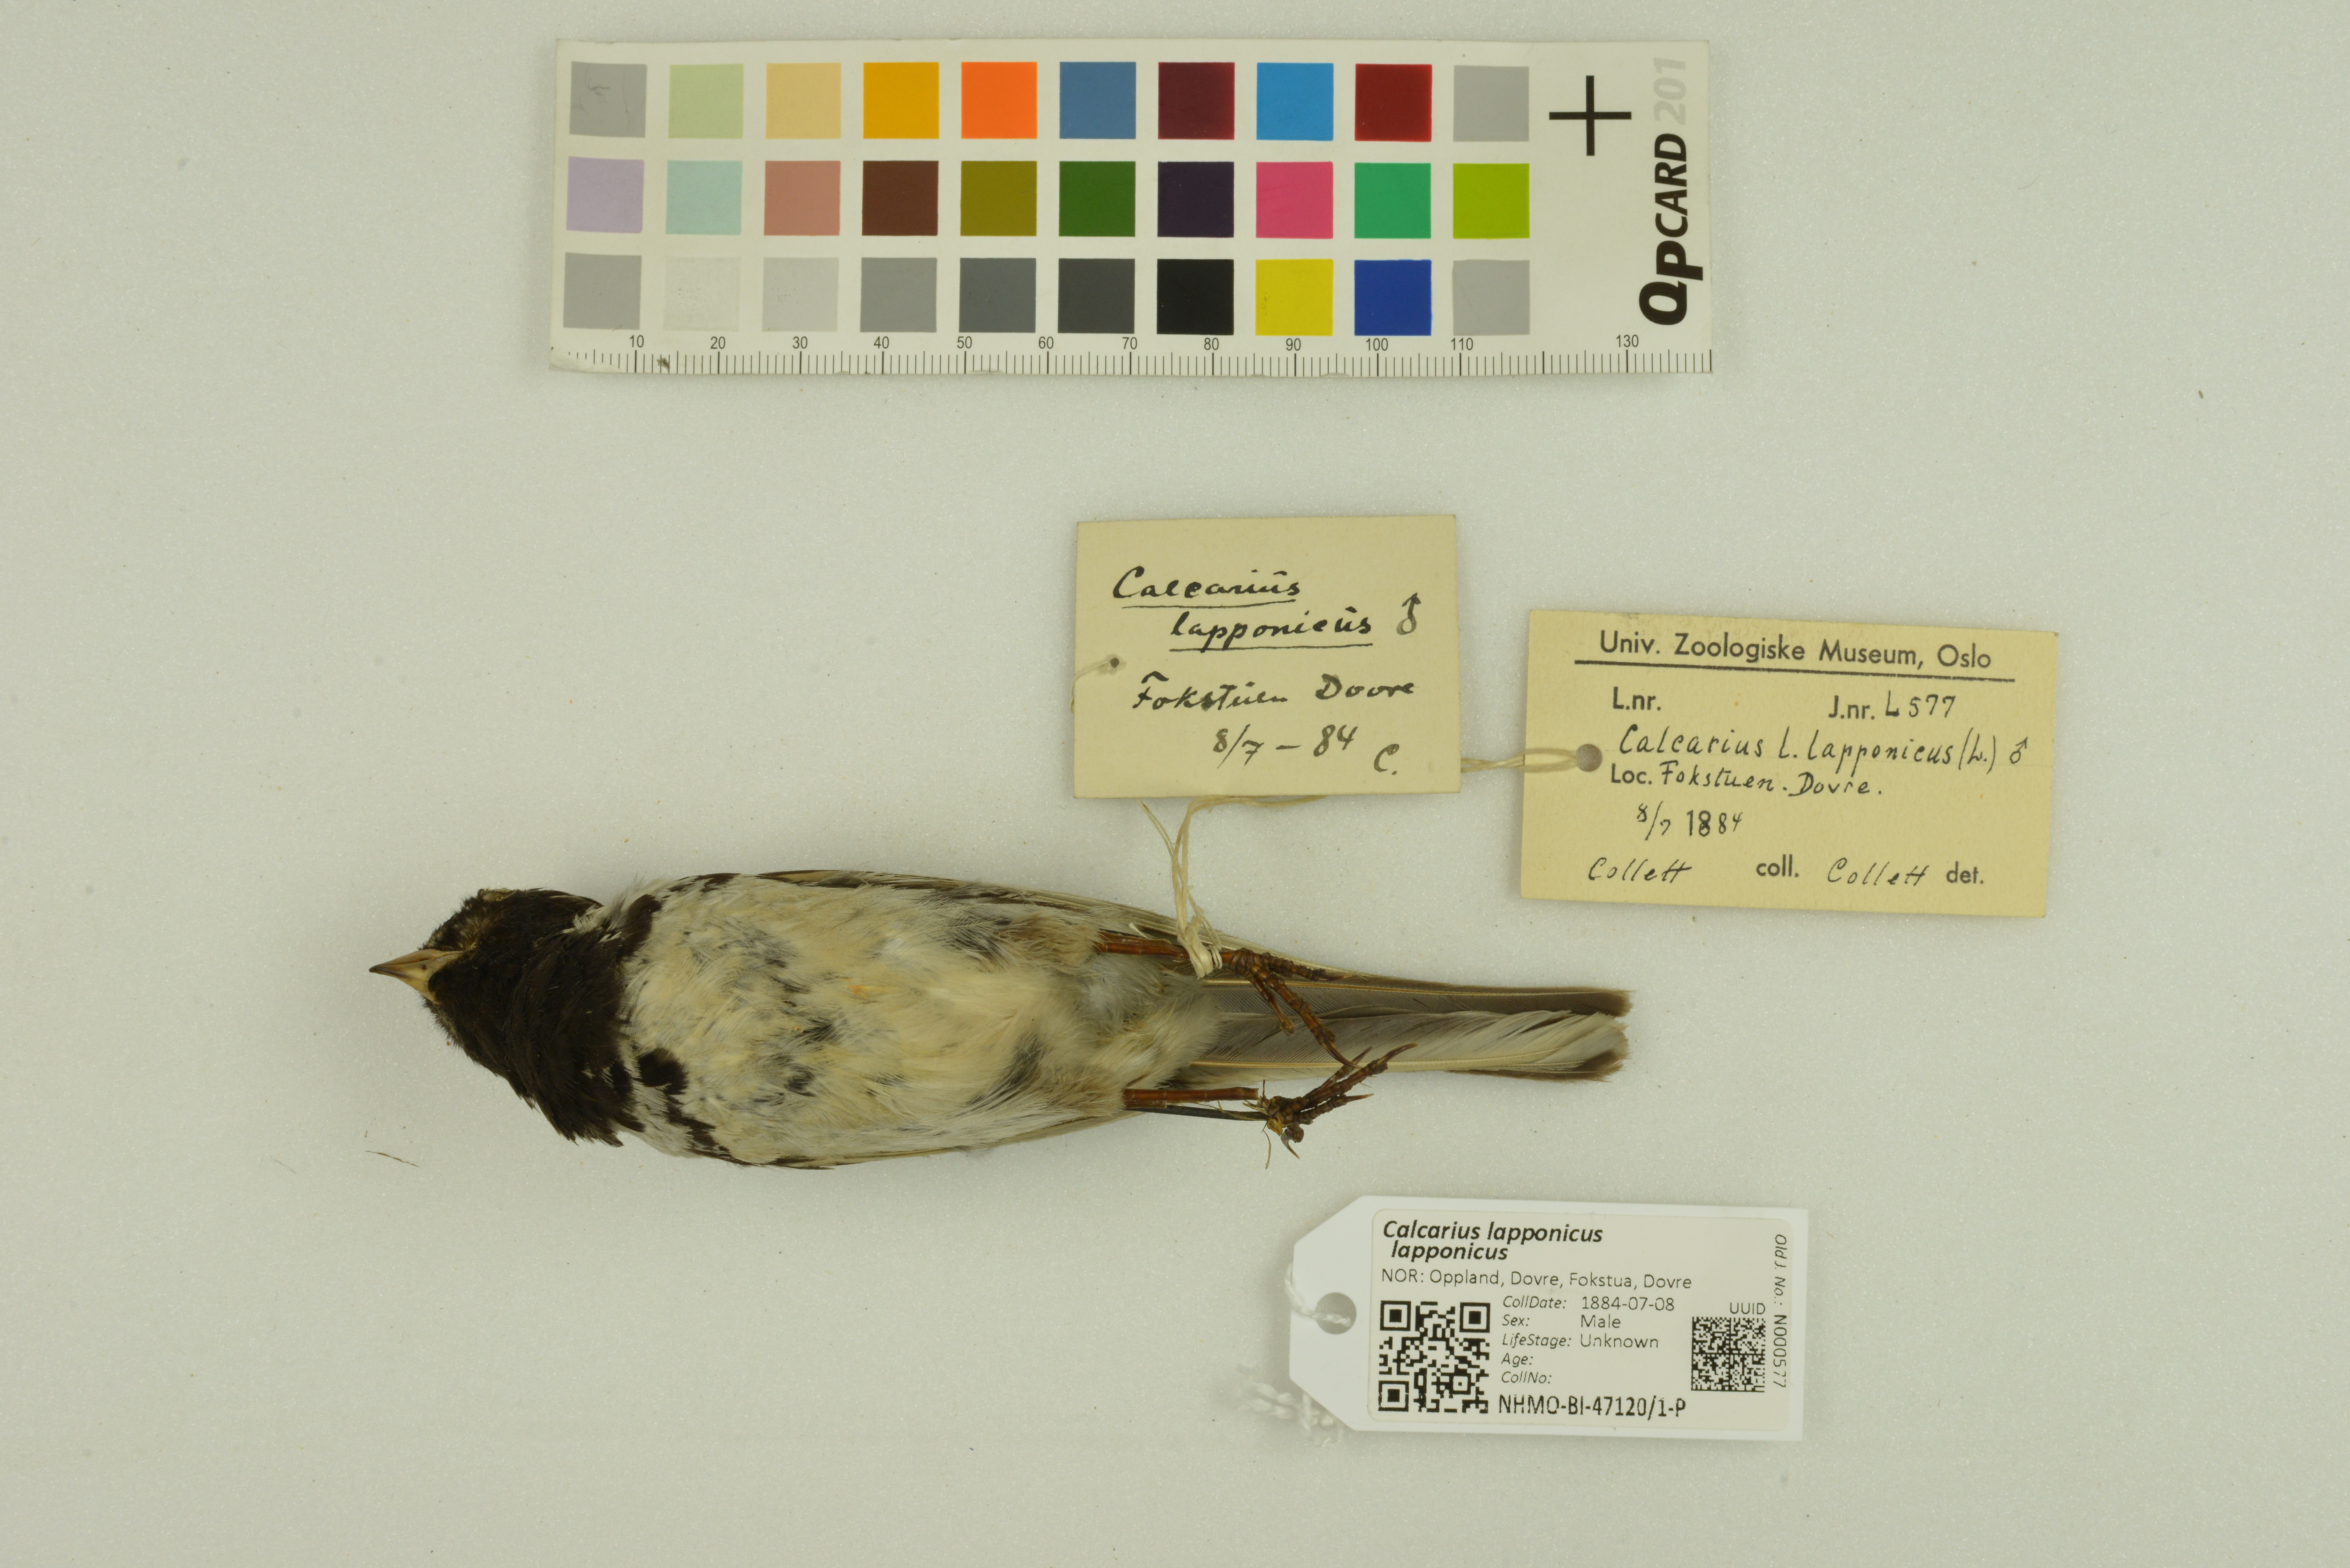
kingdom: Animalia
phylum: Chordata
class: Aves
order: Passeriformes
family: Calcariidae
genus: Calcarius
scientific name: Calcarius lapponicus
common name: Lapland longspur
